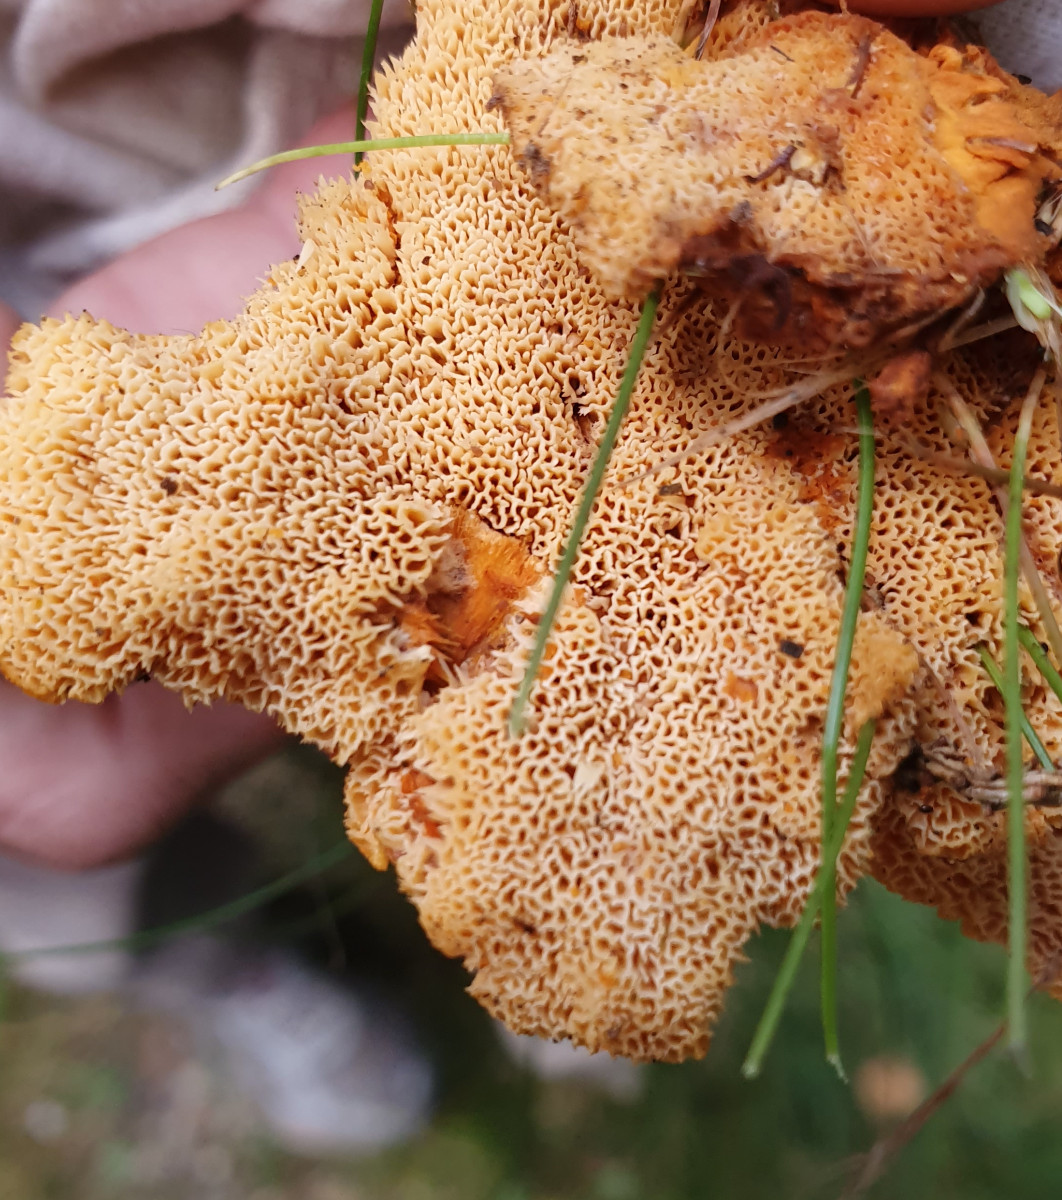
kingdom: Fungi
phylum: Basidiomycota
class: Agaricomycetes
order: Polyporales
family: Pycnoporellaceae
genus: Pycnoporellus
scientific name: Pycnoporellus fulgens
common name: flammeporesvamp
